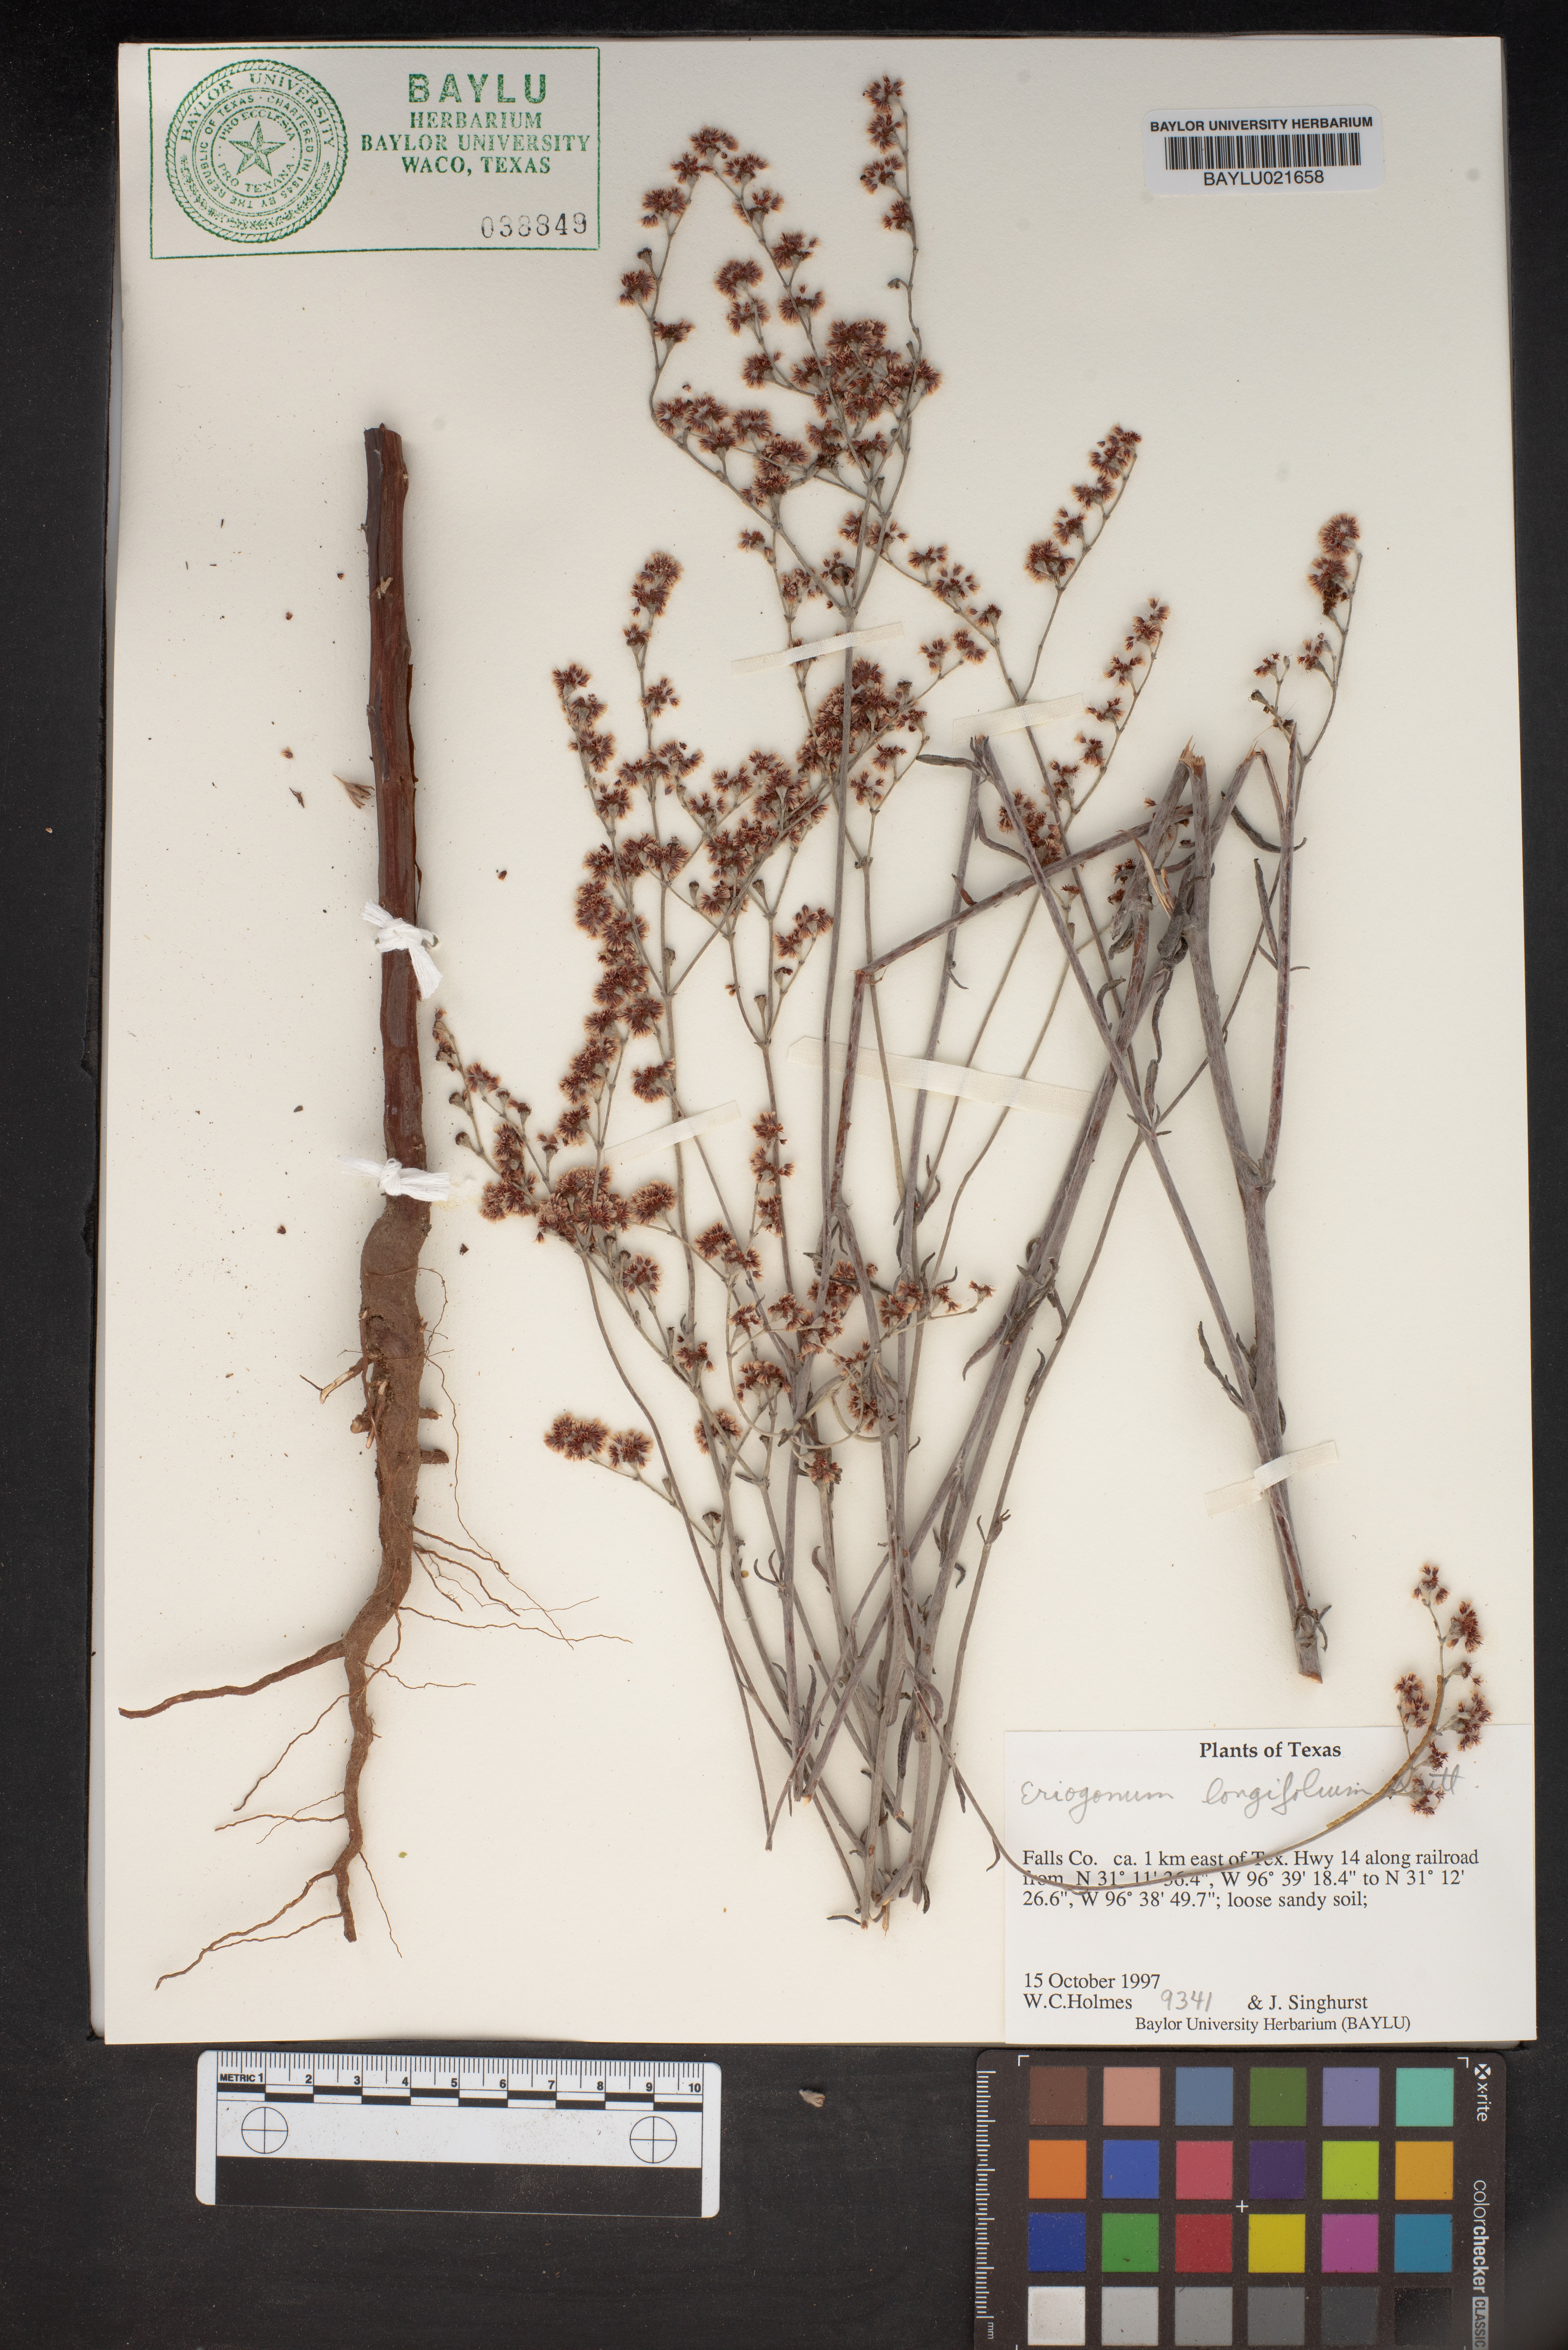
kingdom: Plantae
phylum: Tracheophyta
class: Magnoliopsida
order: Caryophyllales
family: Polygonaceae
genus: Eriogonum
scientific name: Eriogonum longifolium
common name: Longleaf wild buckwheat
